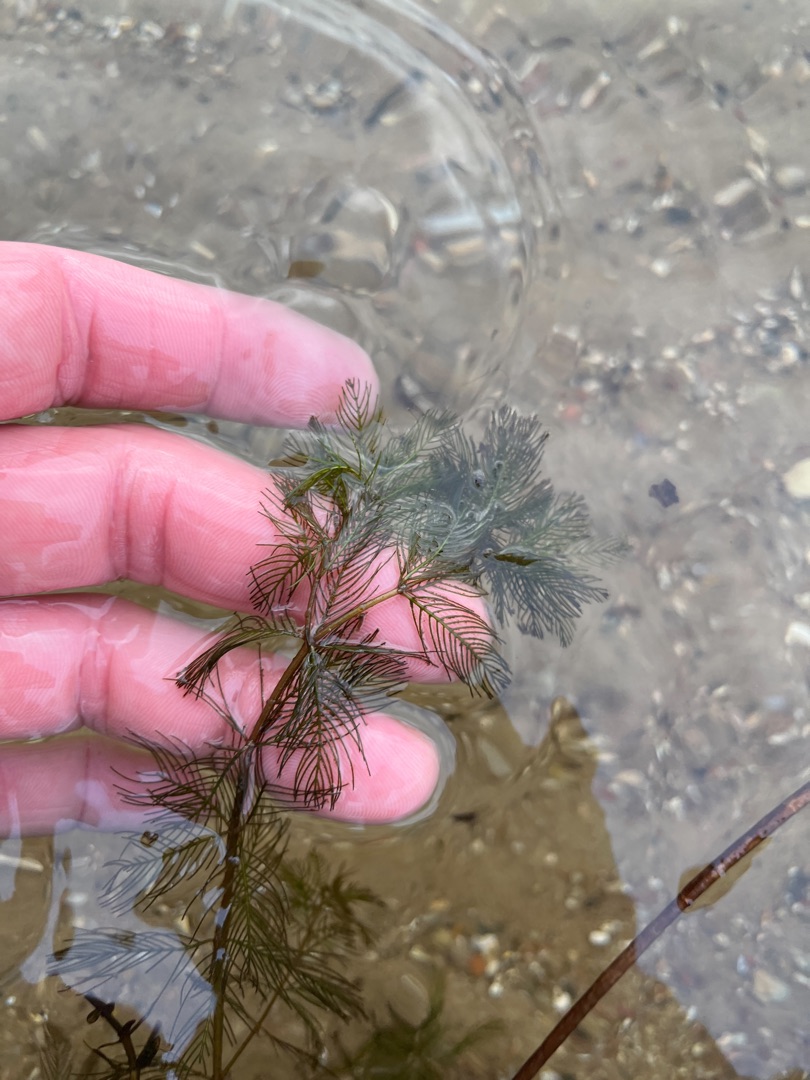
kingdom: Plantae
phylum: Tracheophyta
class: Magnoliopsida
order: Saxifragales
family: Haloragaceae
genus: Myriophyllum
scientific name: Myriophyllum spicatum
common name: Aks-tusindblad
